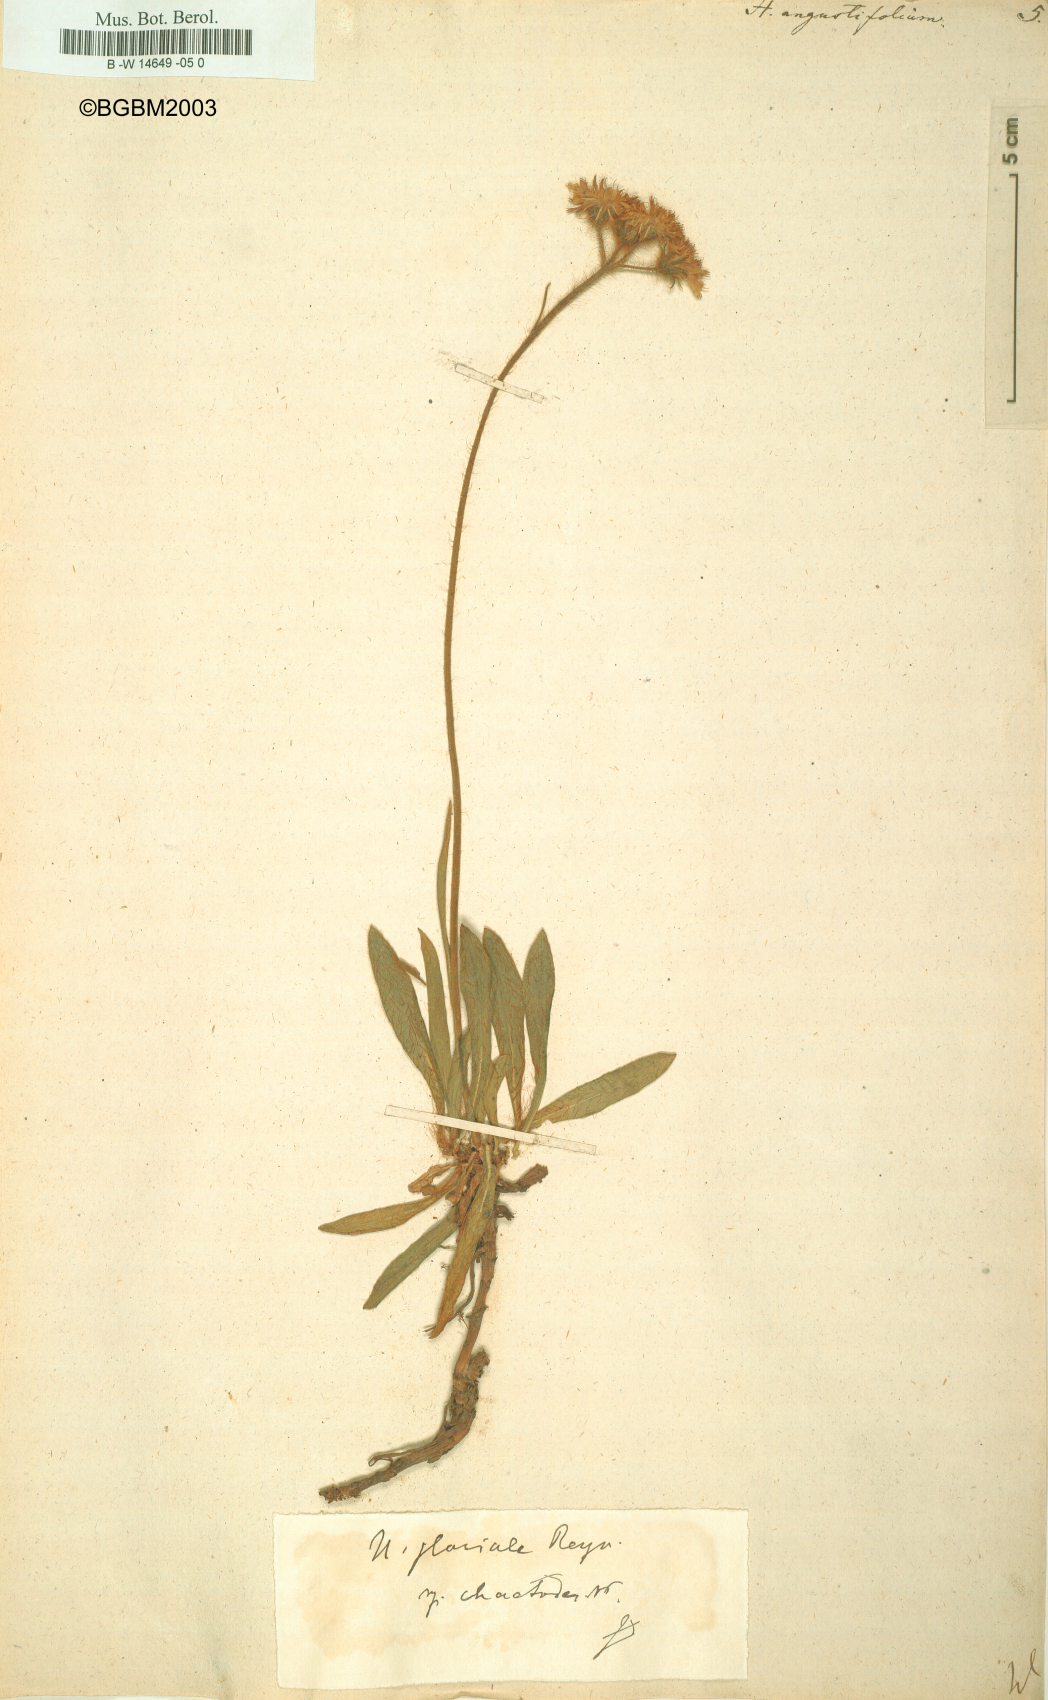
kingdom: Plantae
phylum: Tracheophyta
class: Magnoliopsida
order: Asterales
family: Asteraceae
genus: Hieracium
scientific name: Hieracium angustifolium
